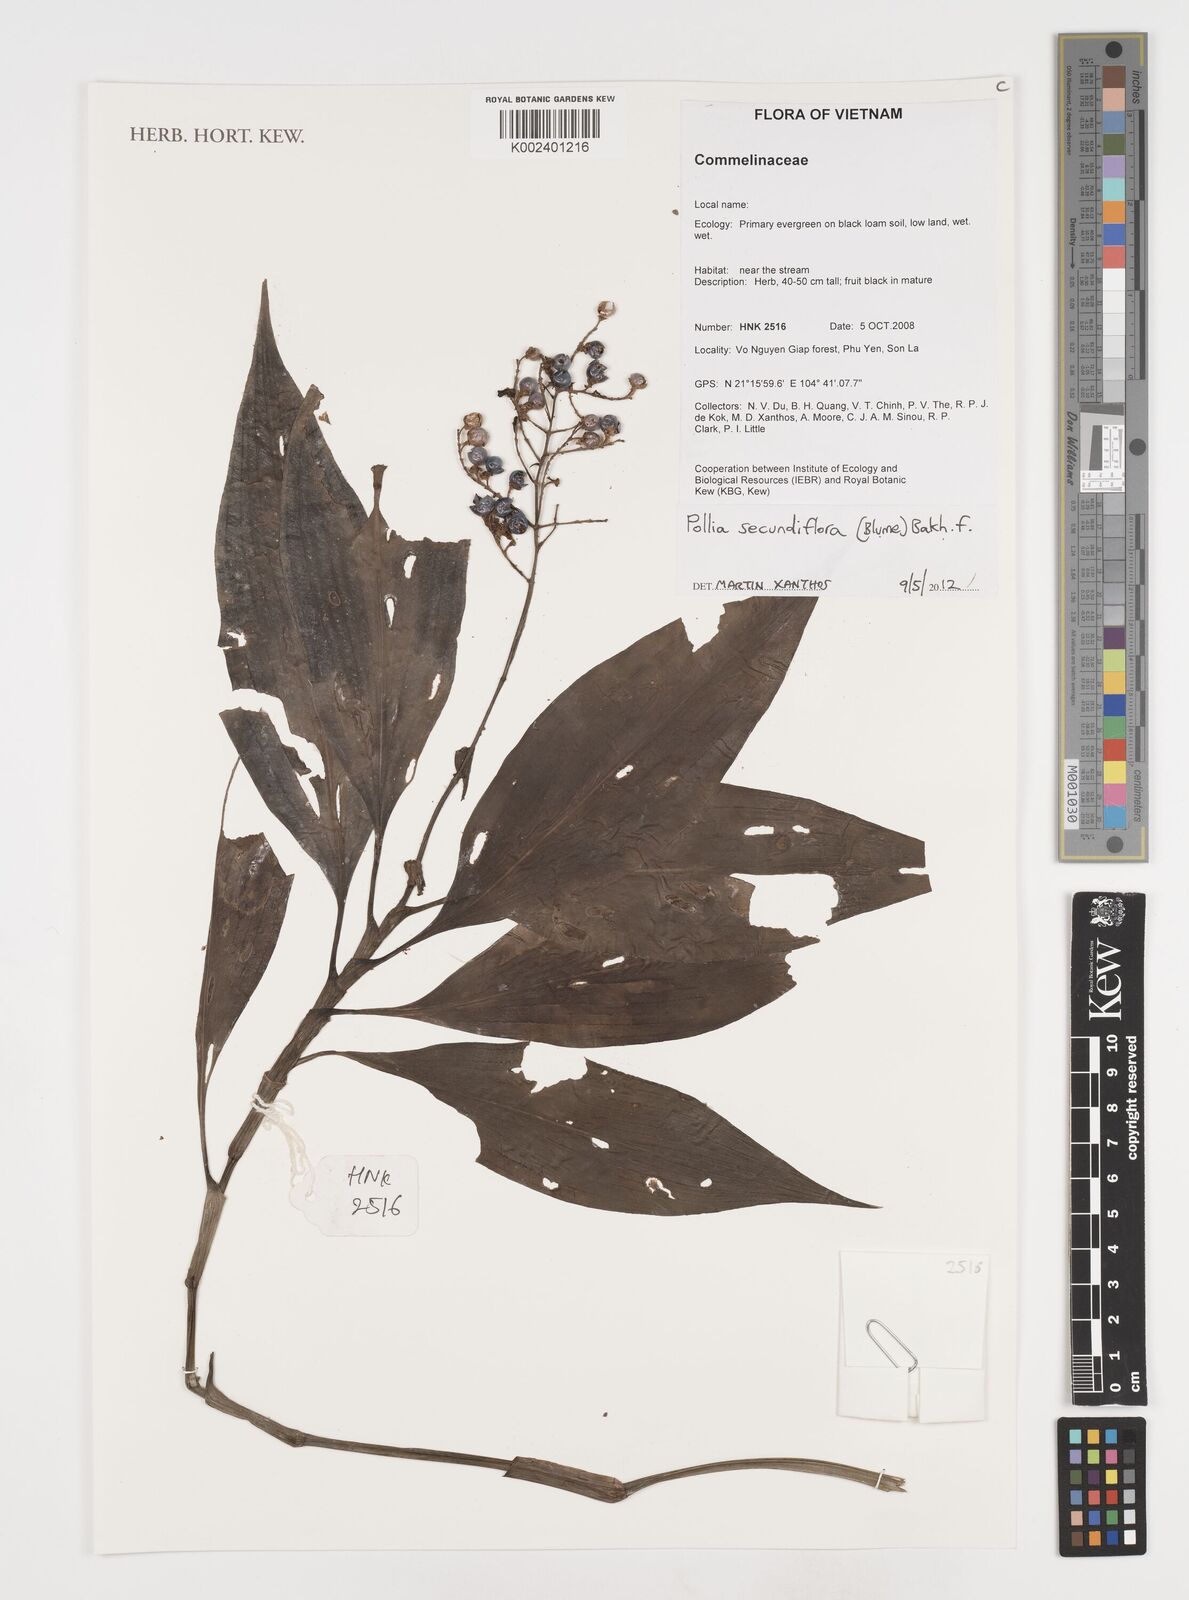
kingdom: Plantae
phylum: Tracheophyta
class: Liliopsida
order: Commelinales
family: Commelinaceae
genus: Pollia
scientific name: Pollia secundiflora
